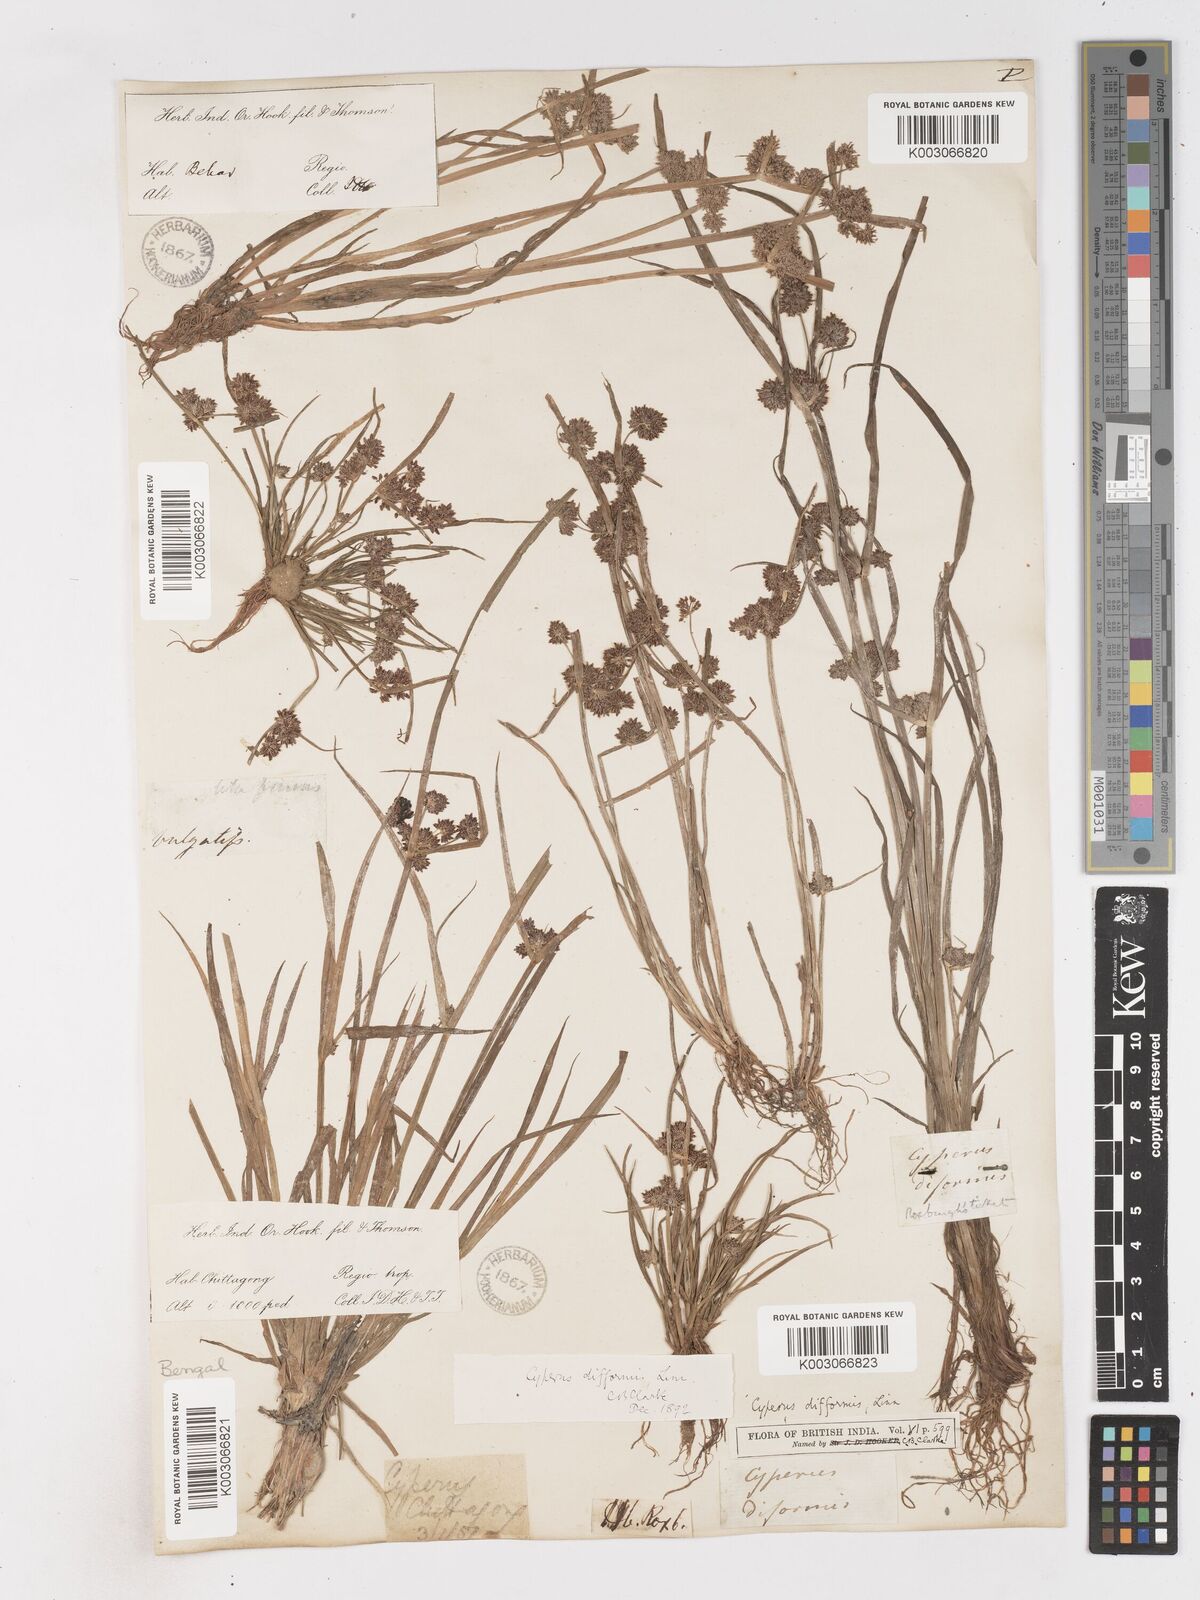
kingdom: Plantae
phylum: Tracheophyta
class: Liliopsida
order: Poales
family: Cyperaceae
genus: Cyperus
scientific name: Cyperus difformis
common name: Variable flatsedge
